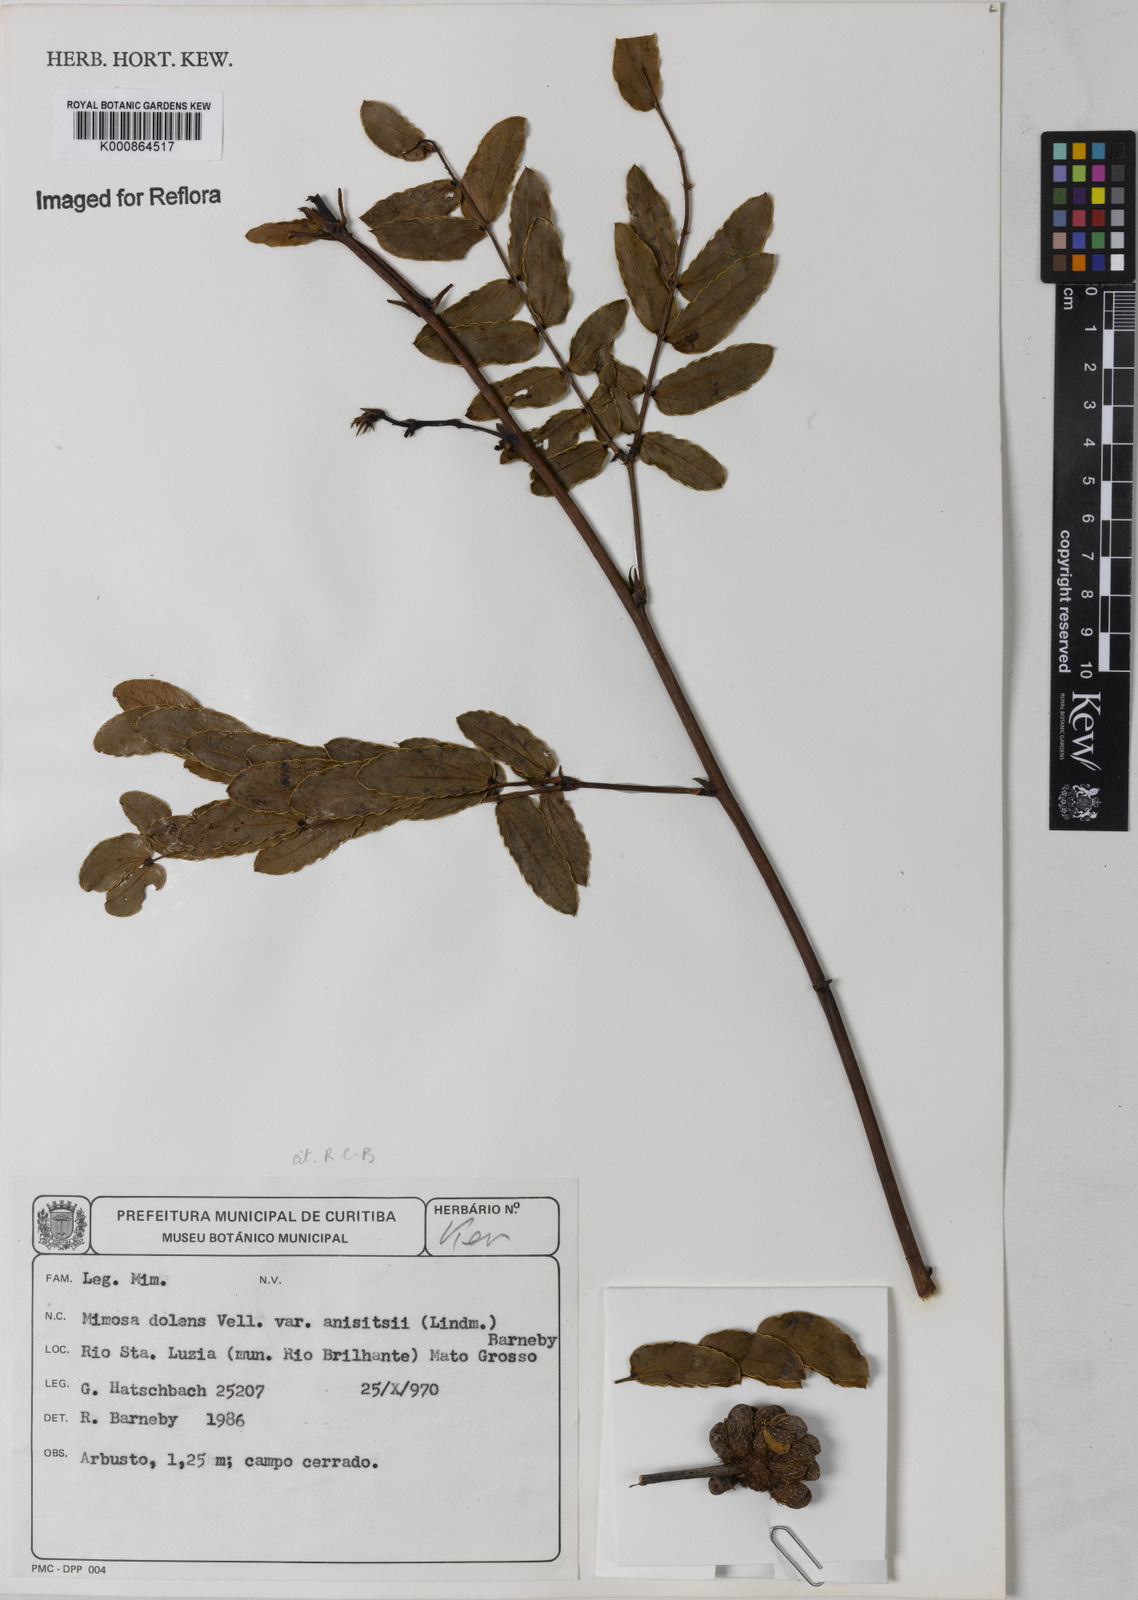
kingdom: Plantae
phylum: Tracheophyta
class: Magnoliopsida
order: Fabales
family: Fabaceae
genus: Mimosa
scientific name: Mimosa dolens
